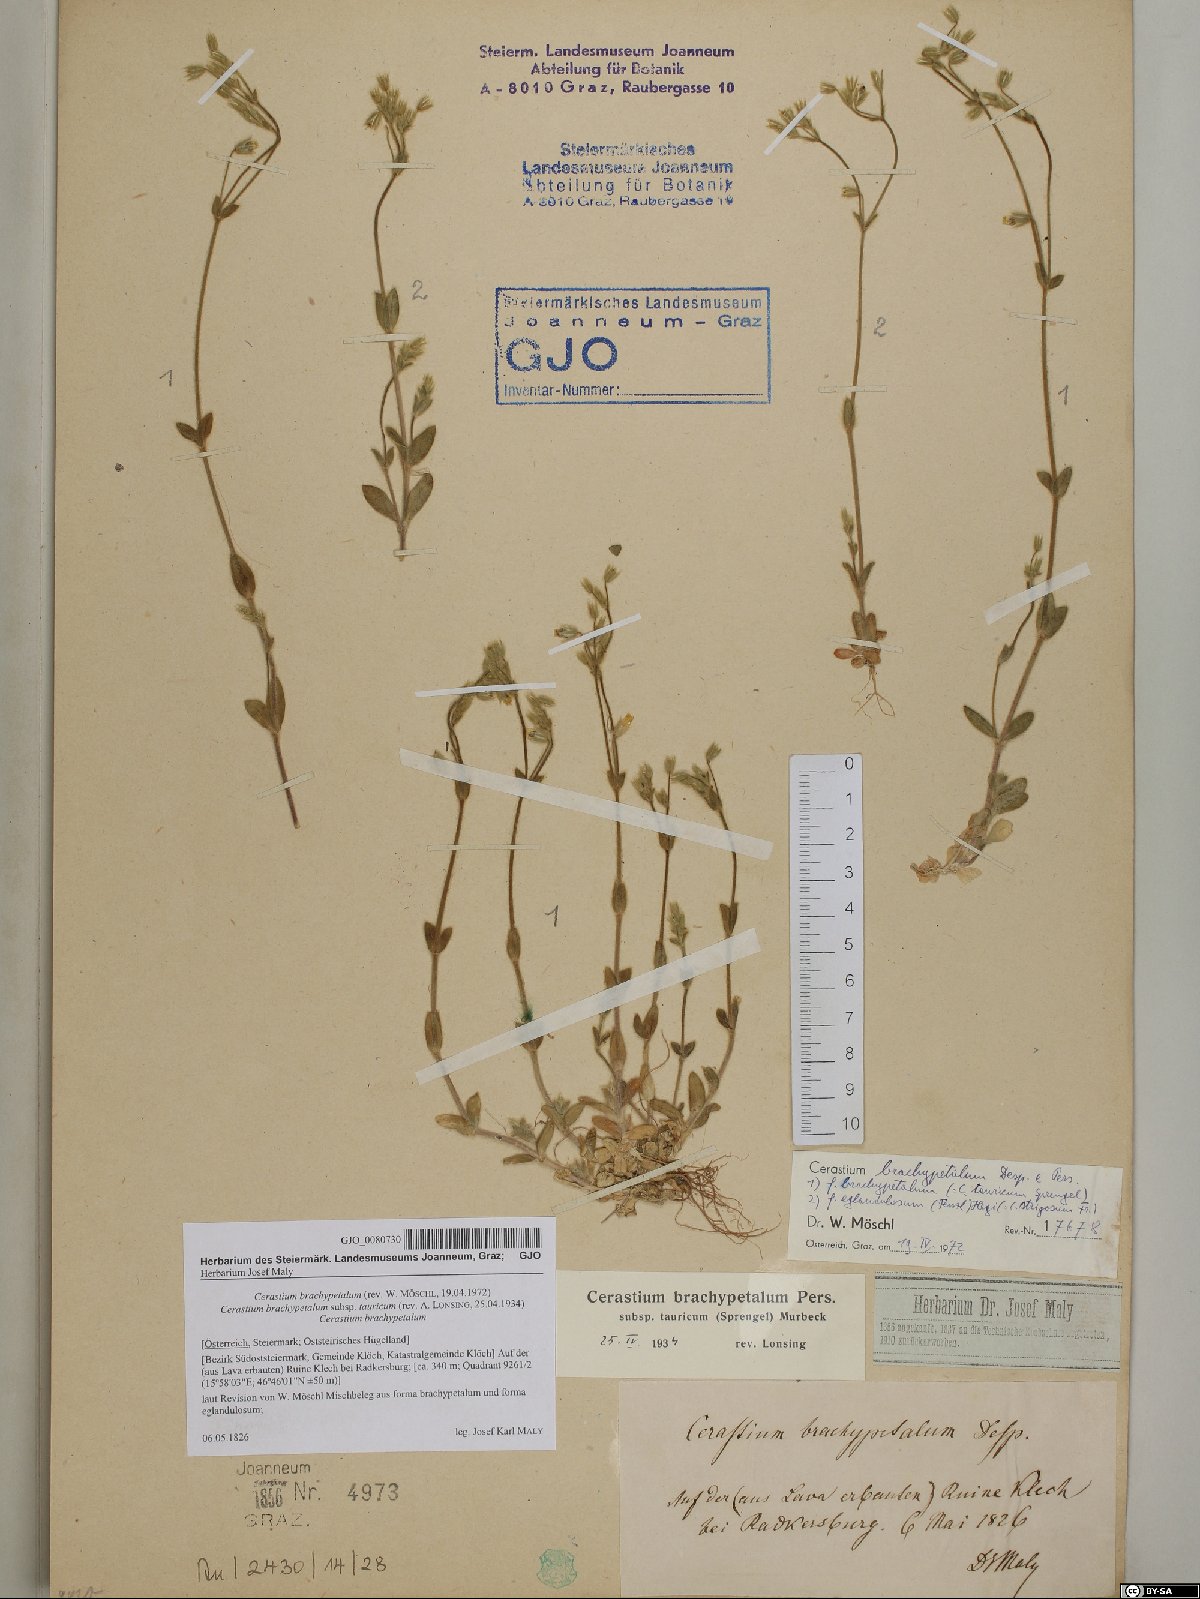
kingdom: Plantae
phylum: Tracheophyta
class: Magnoliopsida
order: Caryophyllales
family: Caryophyllaceae
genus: Cerastium
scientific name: Cerastium brachypetalum
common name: Grey mouse-ear
